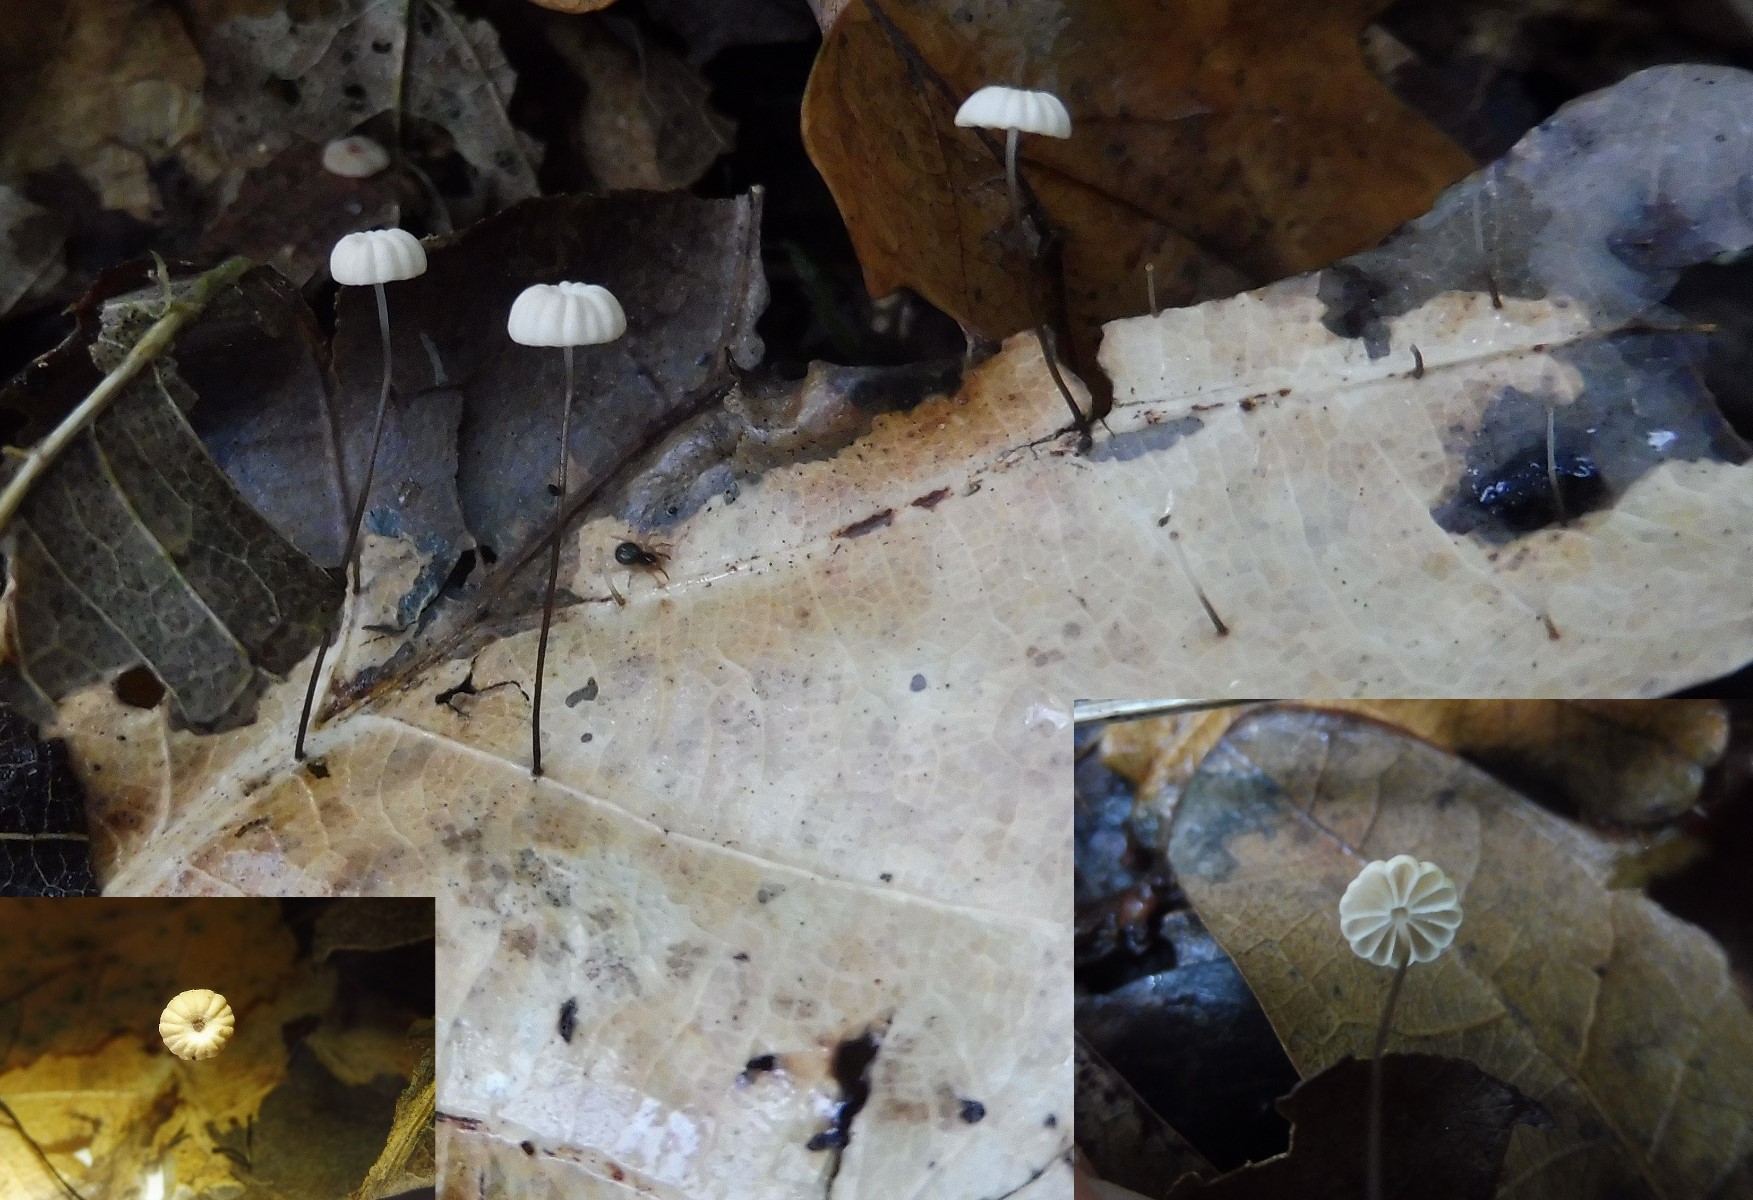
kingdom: Fungi
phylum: Basidiomycota
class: Agaricomycetes
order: Agaricales
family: Marasmiaceae
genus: Marasmius
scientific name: Marasmius bulliardii
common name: furet bruskhat
